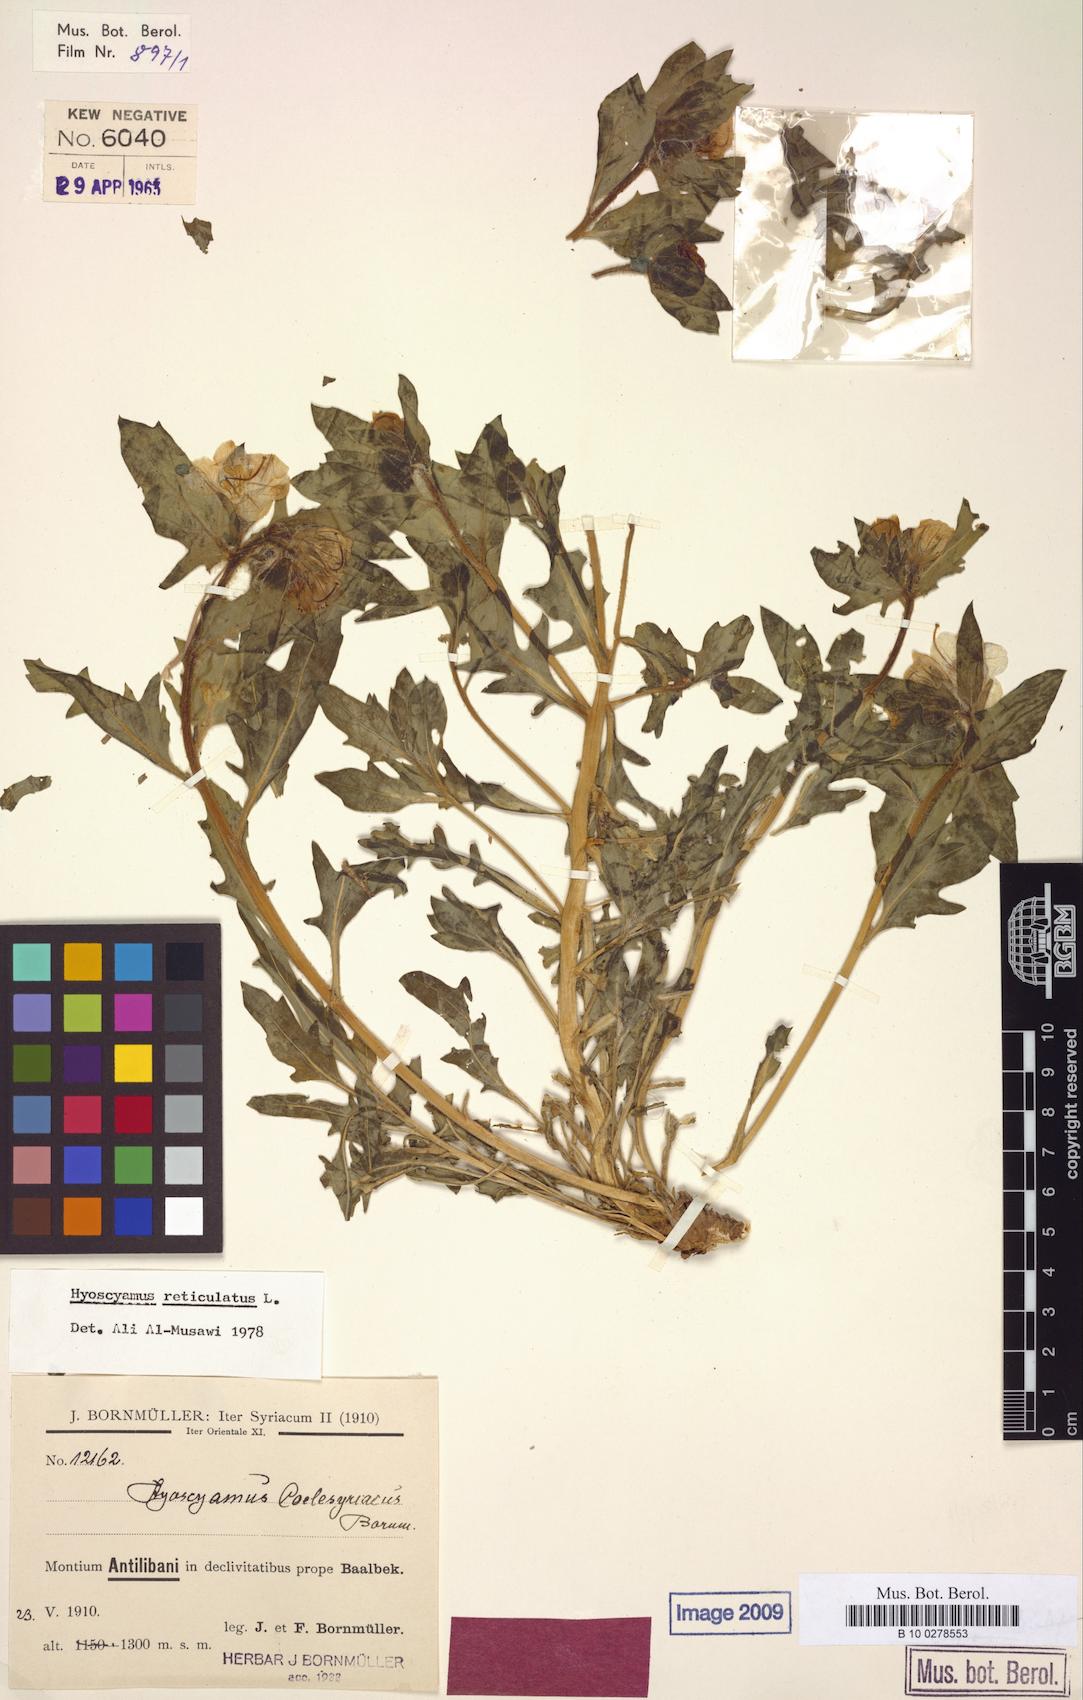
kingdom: Plantae
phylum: Tracheophyta
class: Magnoliopsida
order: Solanales
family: Solanaceae
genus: Hyoscyamus
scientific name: Hyoscyamus reticulatus
